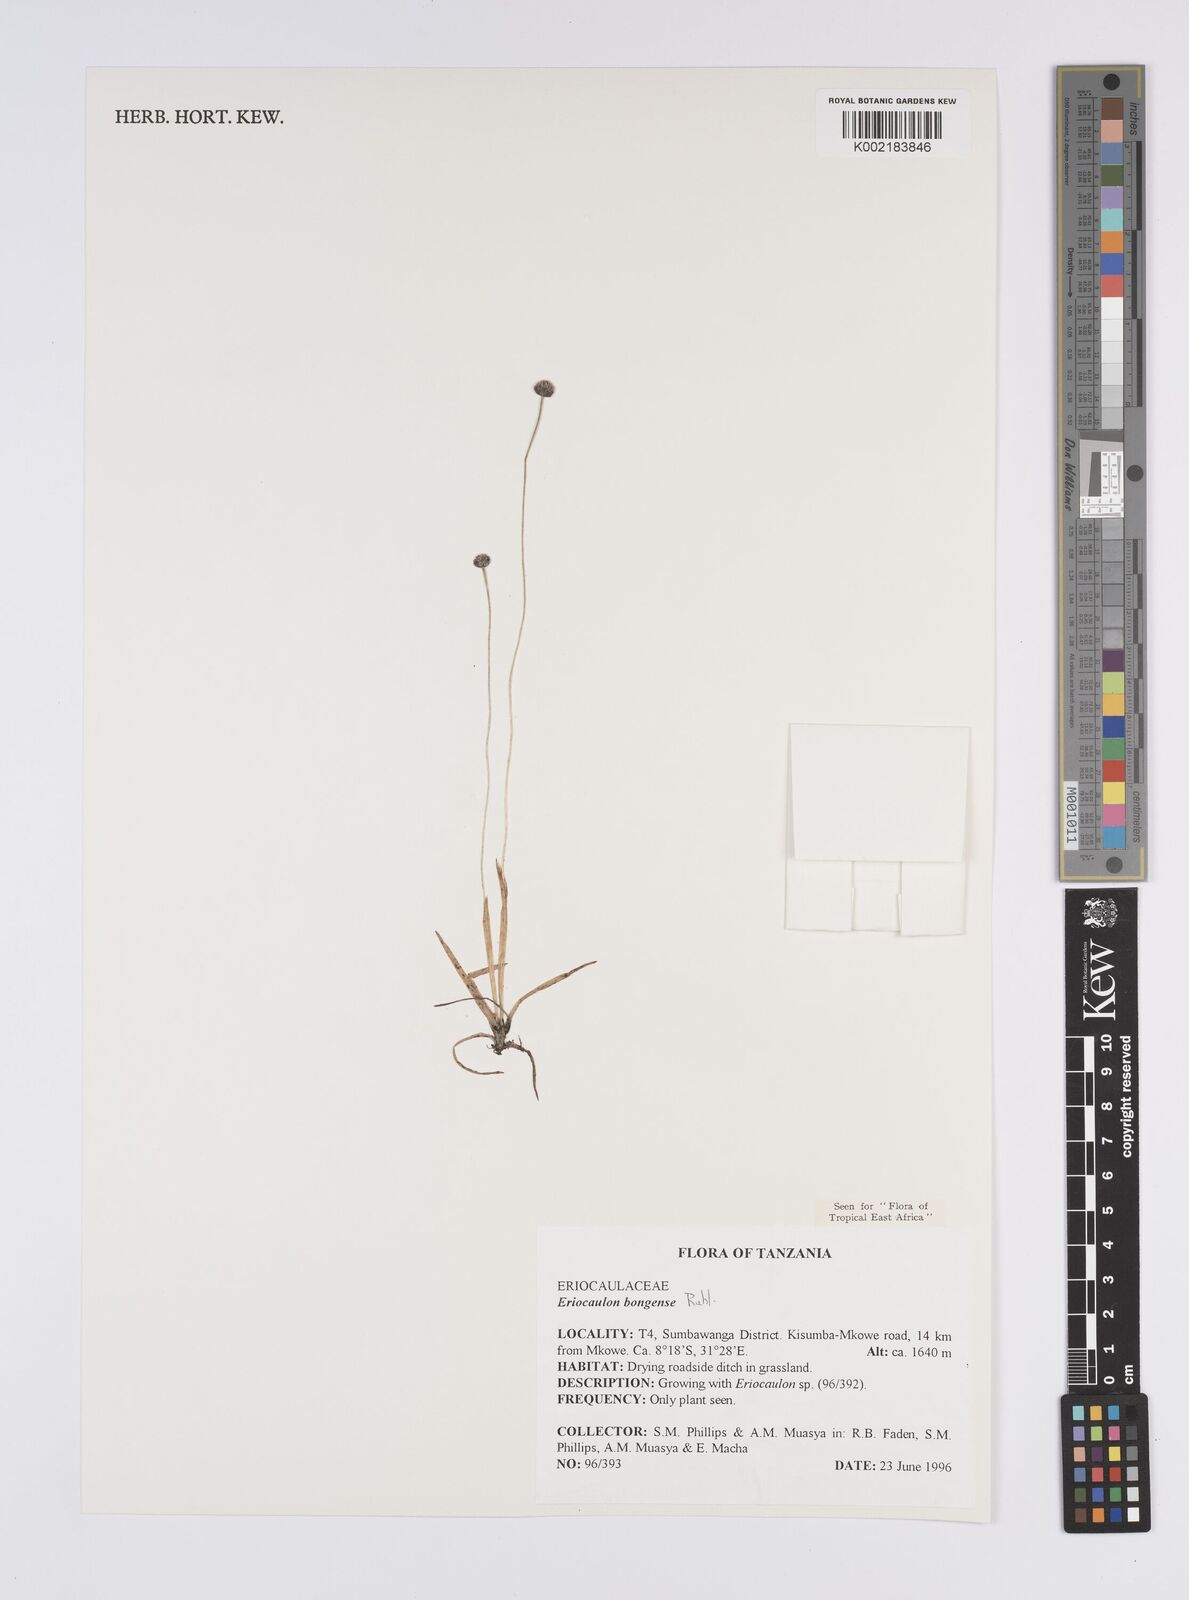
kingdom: Plantae
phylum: Tracheophyta
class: Liliopsida
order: Poales
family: Eriocaulaceae
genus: Eriocaulon
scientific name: Eriocaulon bongense
